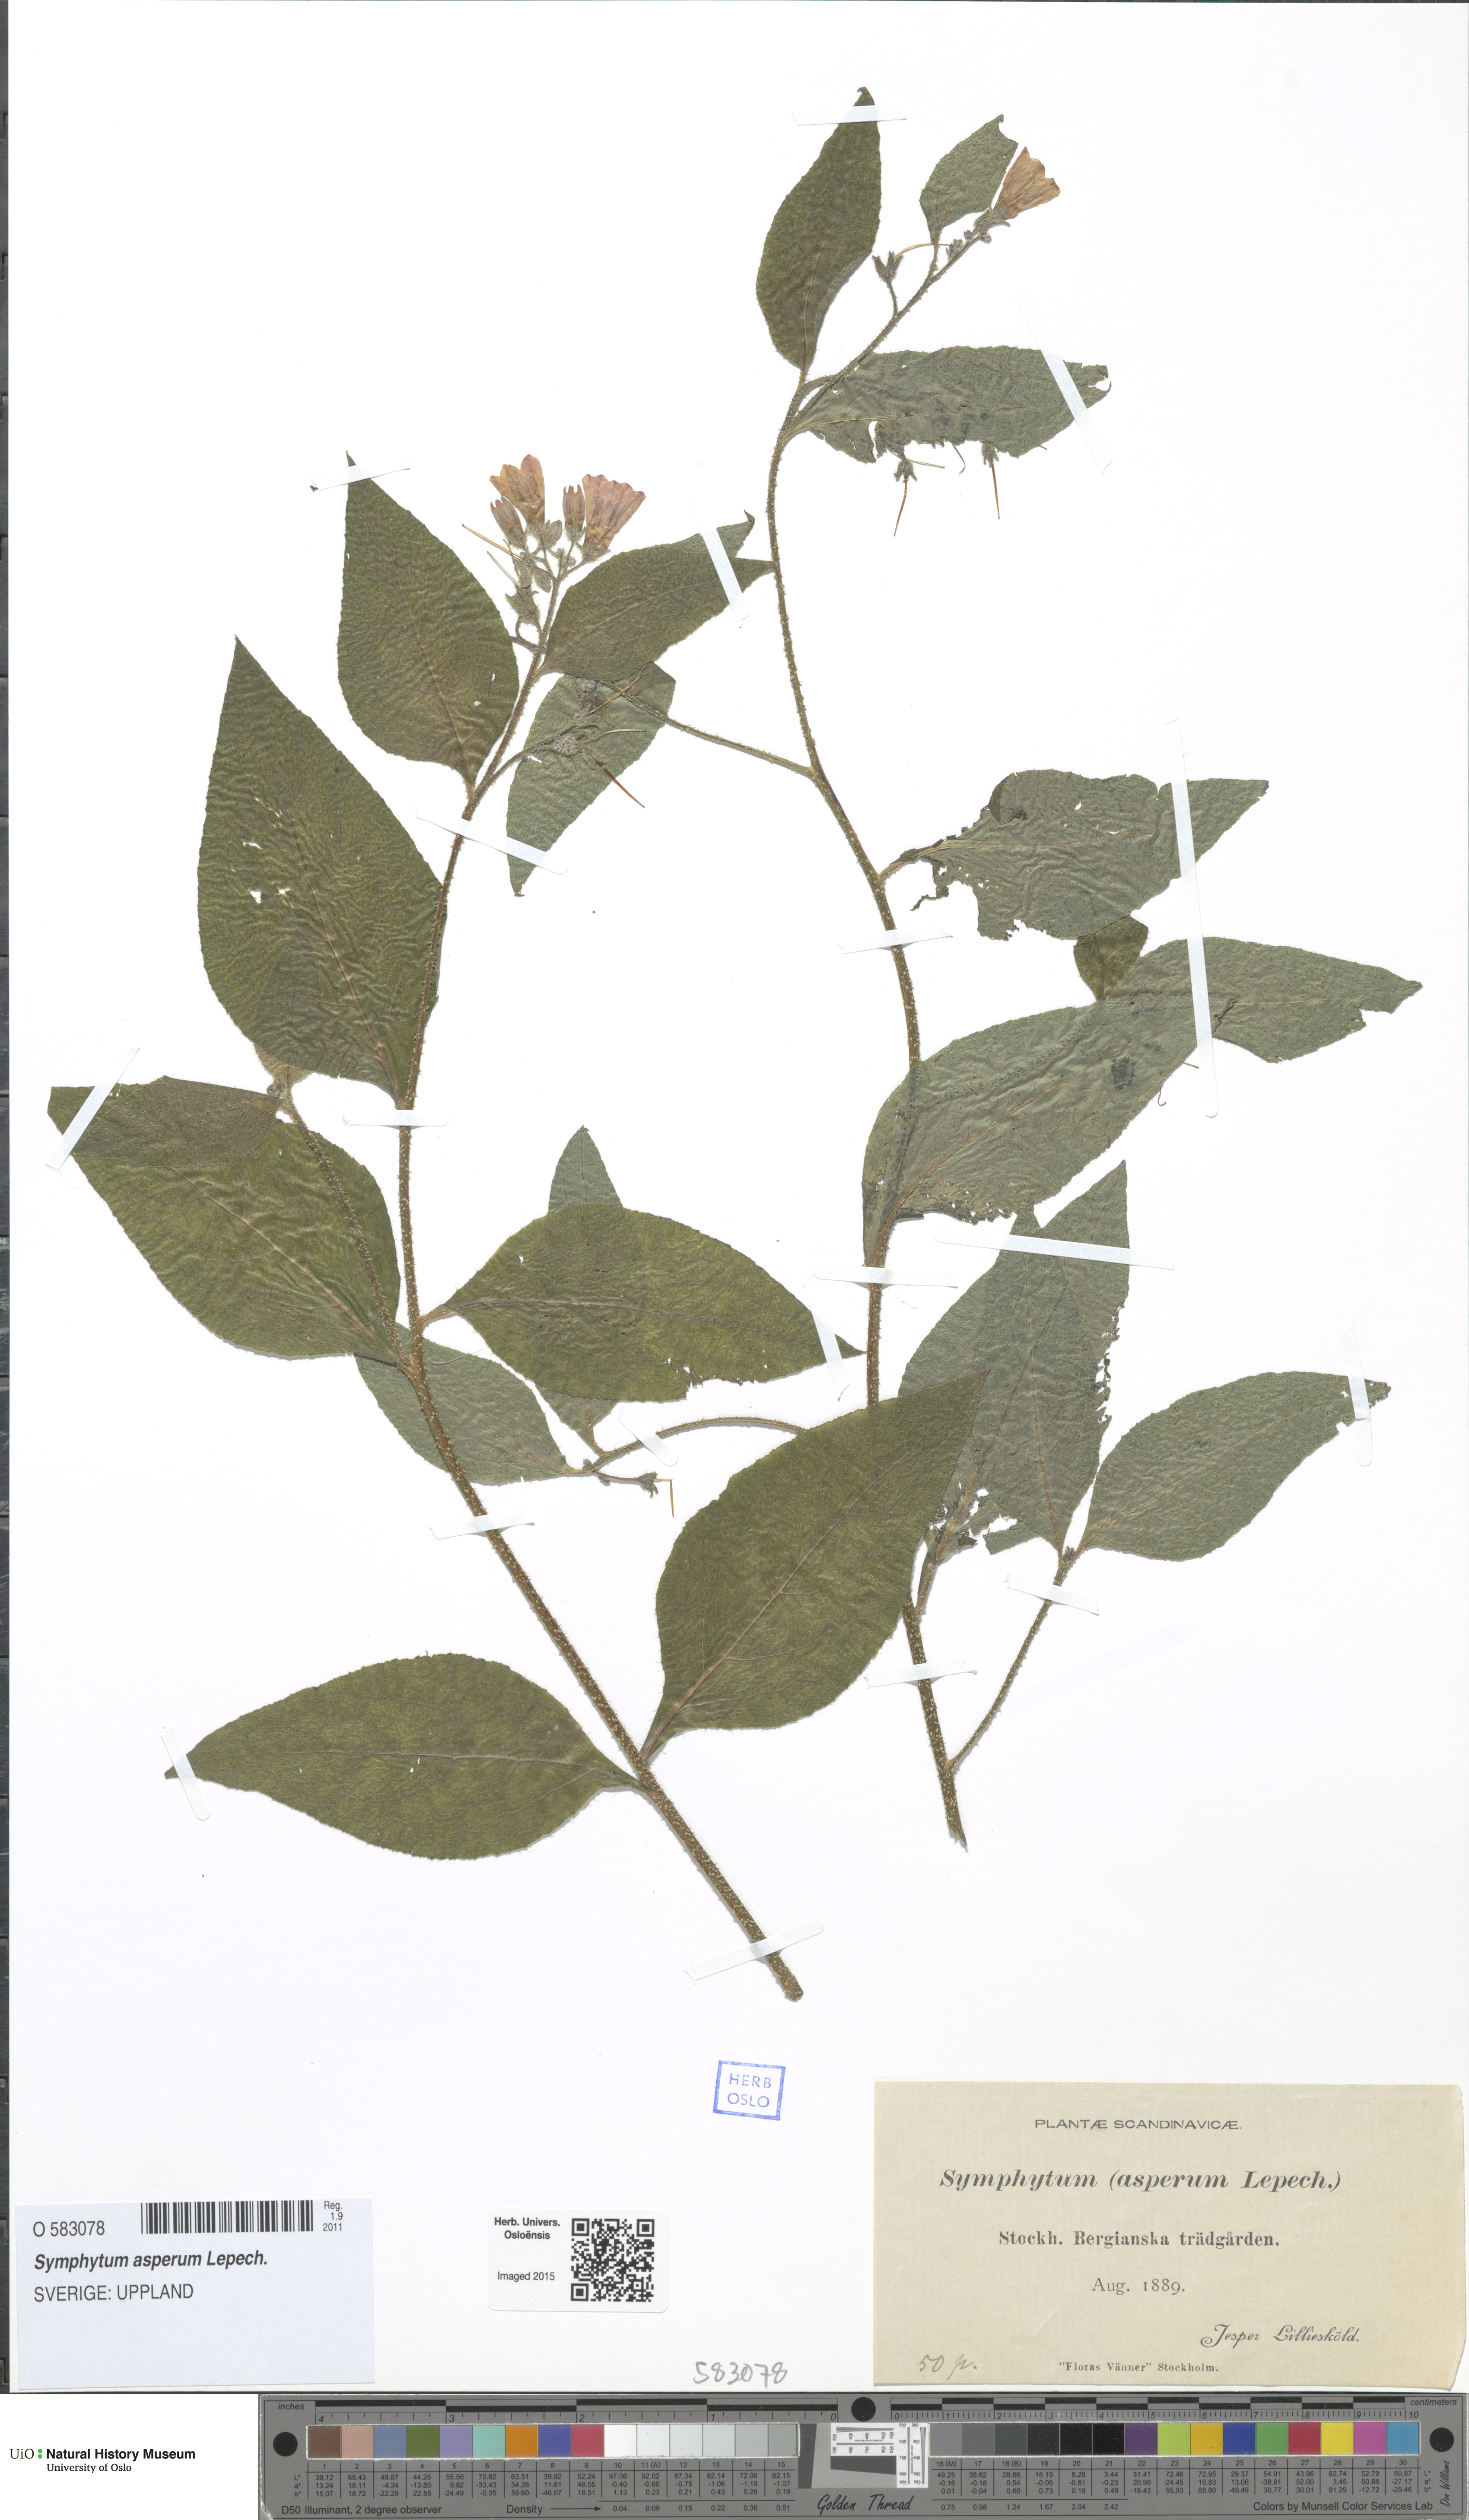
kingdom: Plantae
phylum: Tracheophyta
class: Magnoliopsida
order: Boraginales
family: Boraginaceae
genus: Symphytum
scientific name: Symphytum asperum
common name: Prickly comfrey
